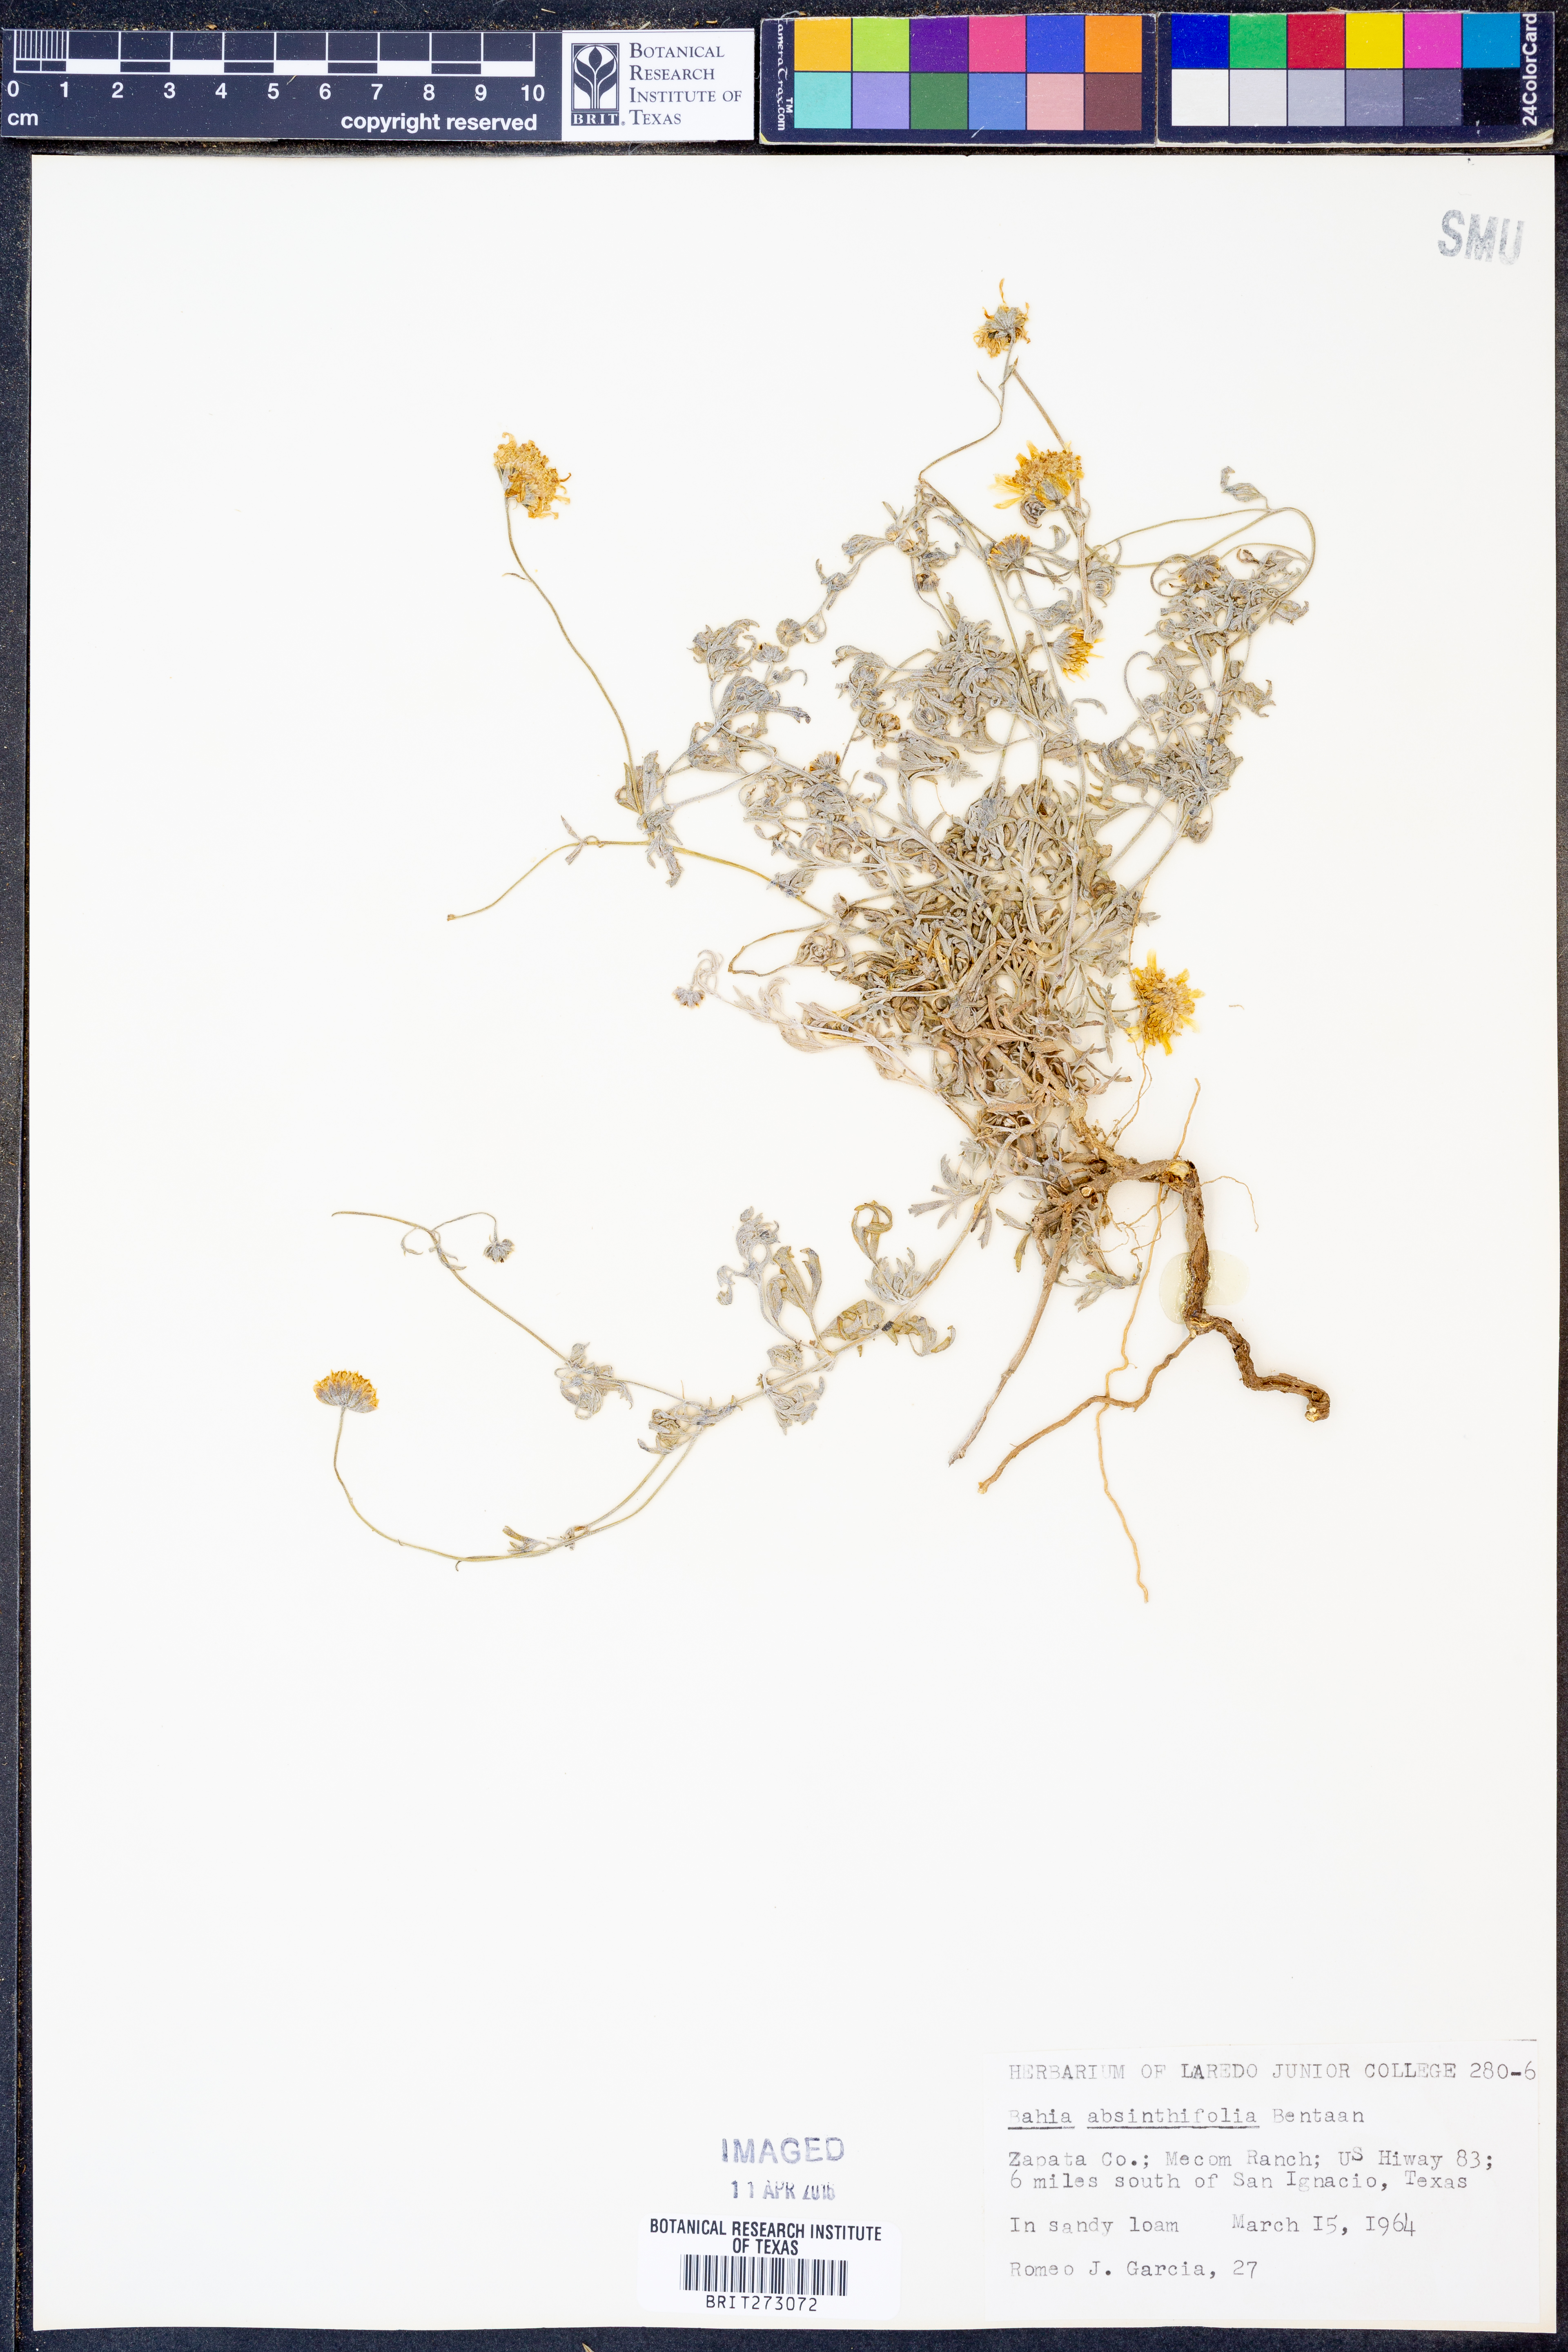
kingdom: Plantae
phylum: Tracheophyta
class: Magnoliopsida
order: Asterales
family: Asteraceae
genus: Picradeniopsis
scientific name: Picradeniopsis absinthifolia
